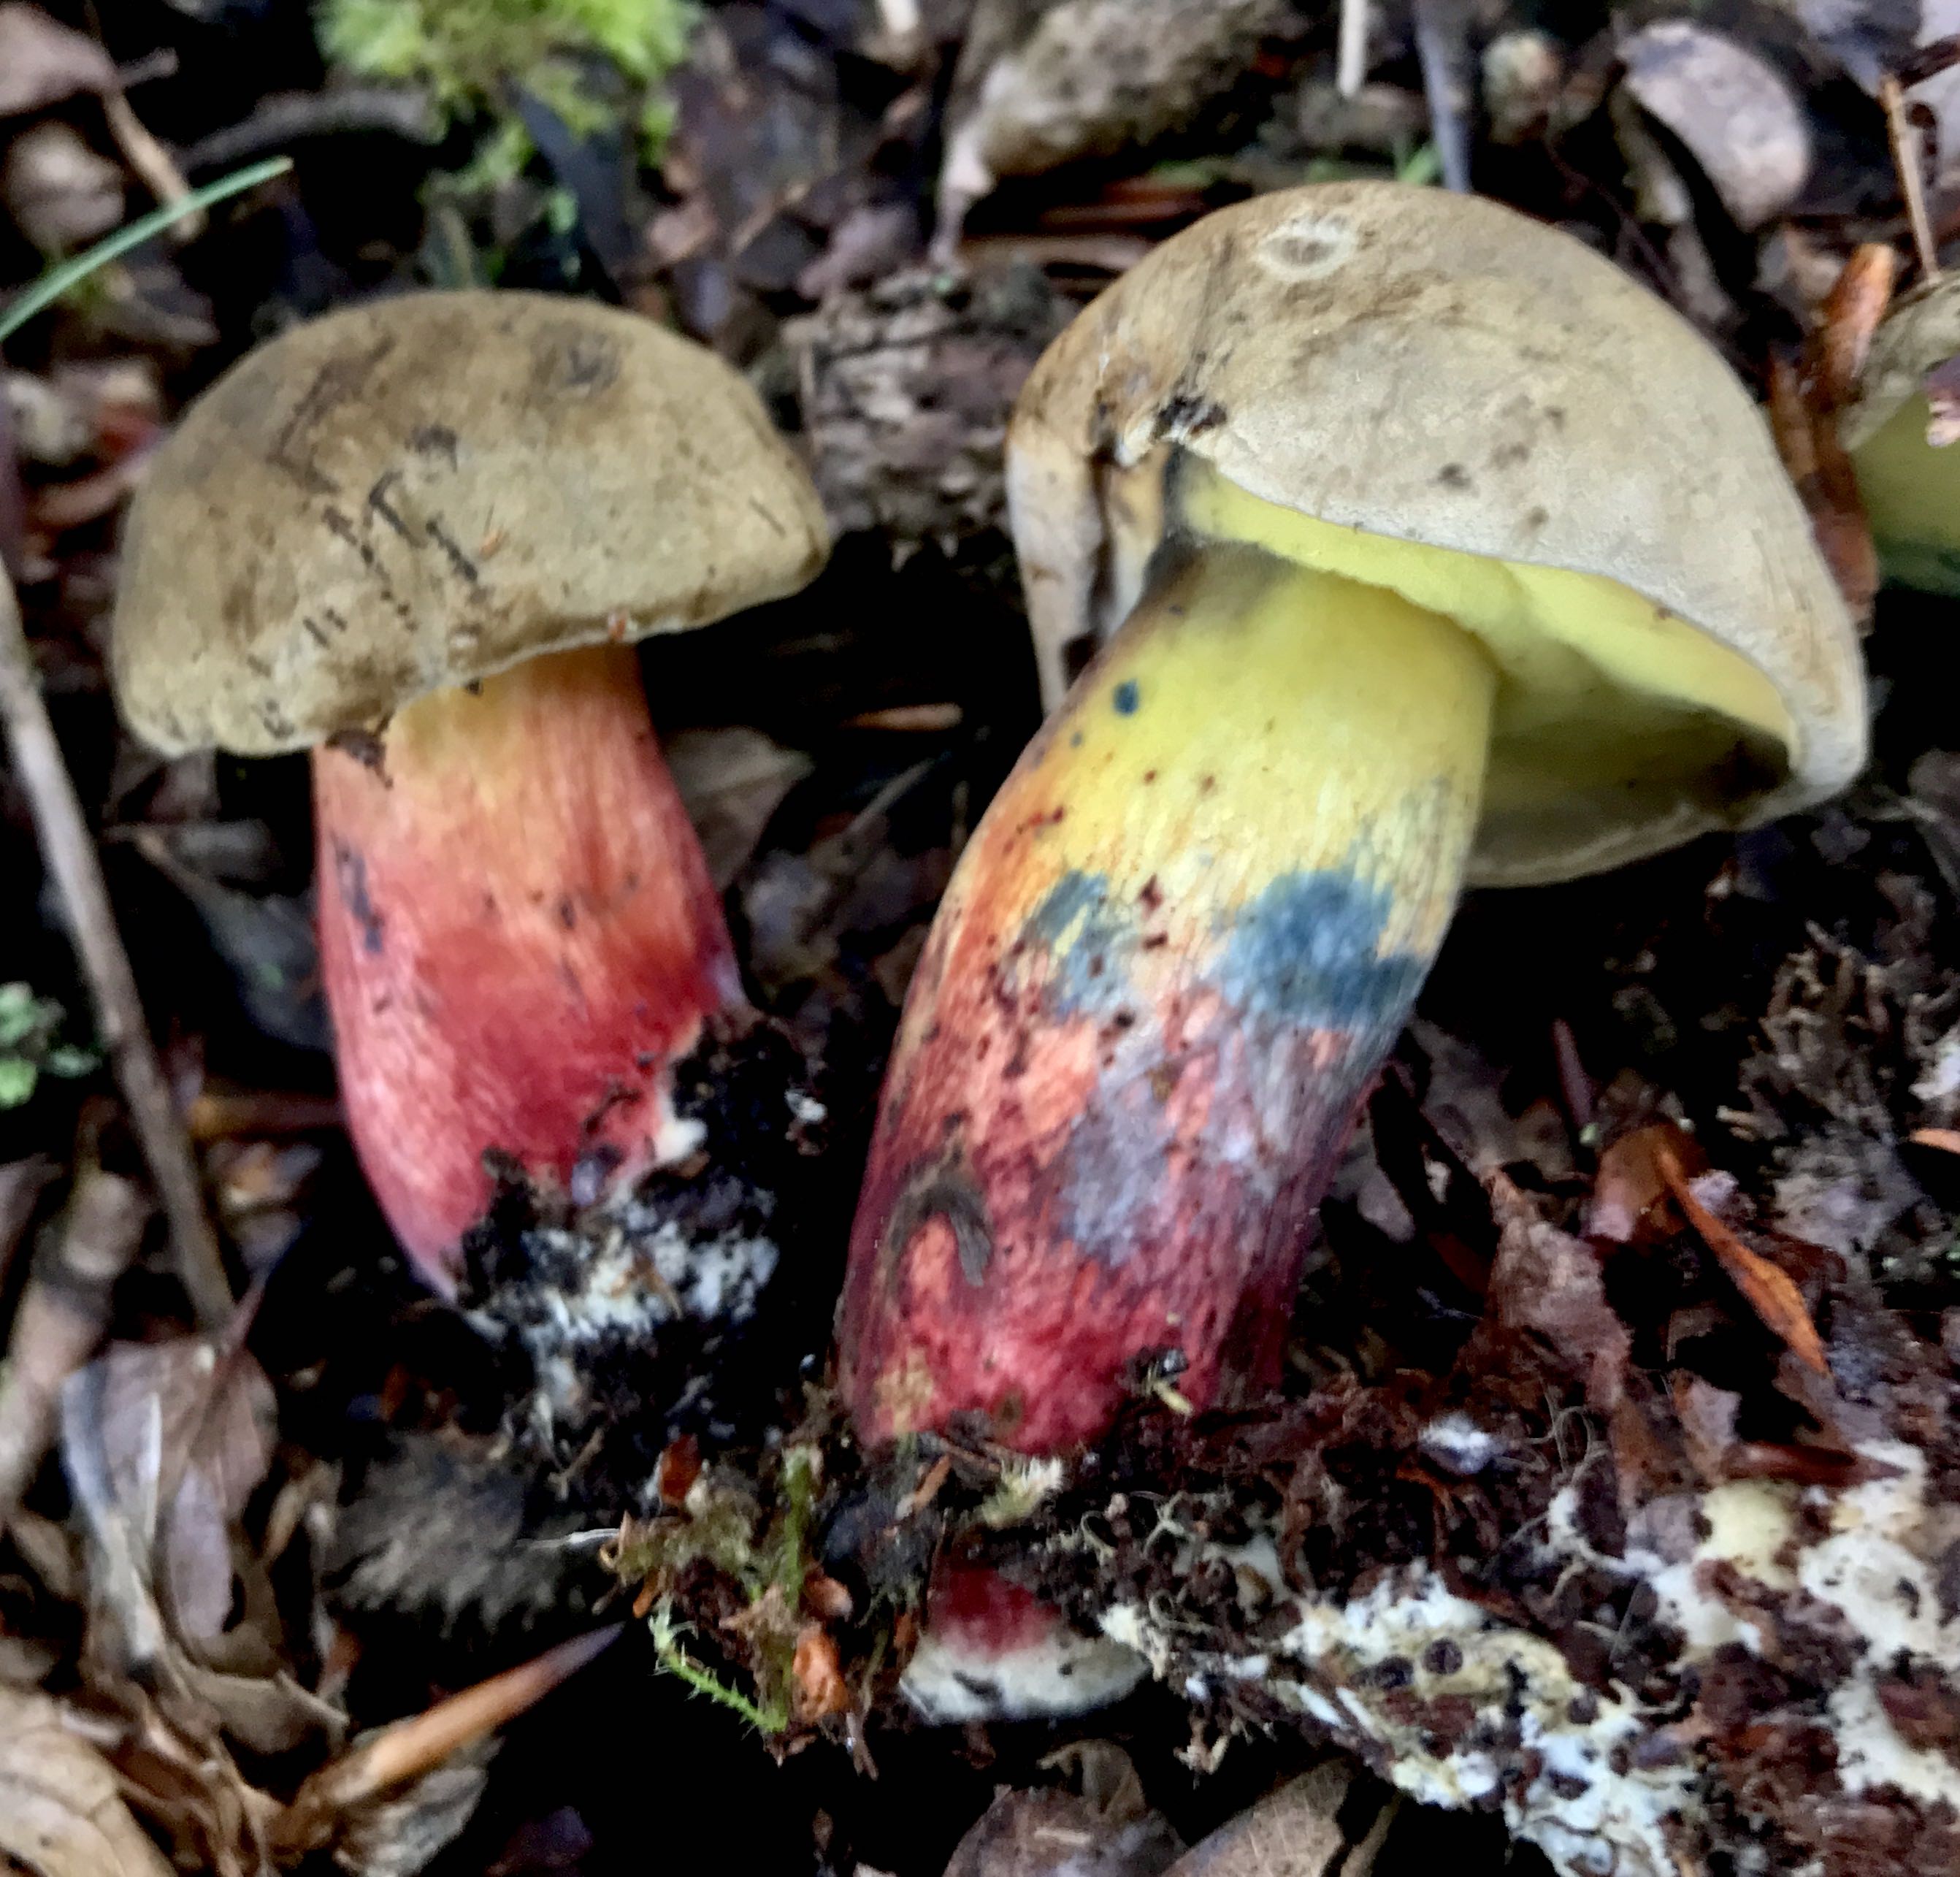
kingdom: Fungi
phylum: Basidiomycota
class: Agaricomycetes
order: Boletales
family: Boletaceae
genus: Caloboletus
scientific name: Caloboletus calopus
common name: skønfodet rørhat
